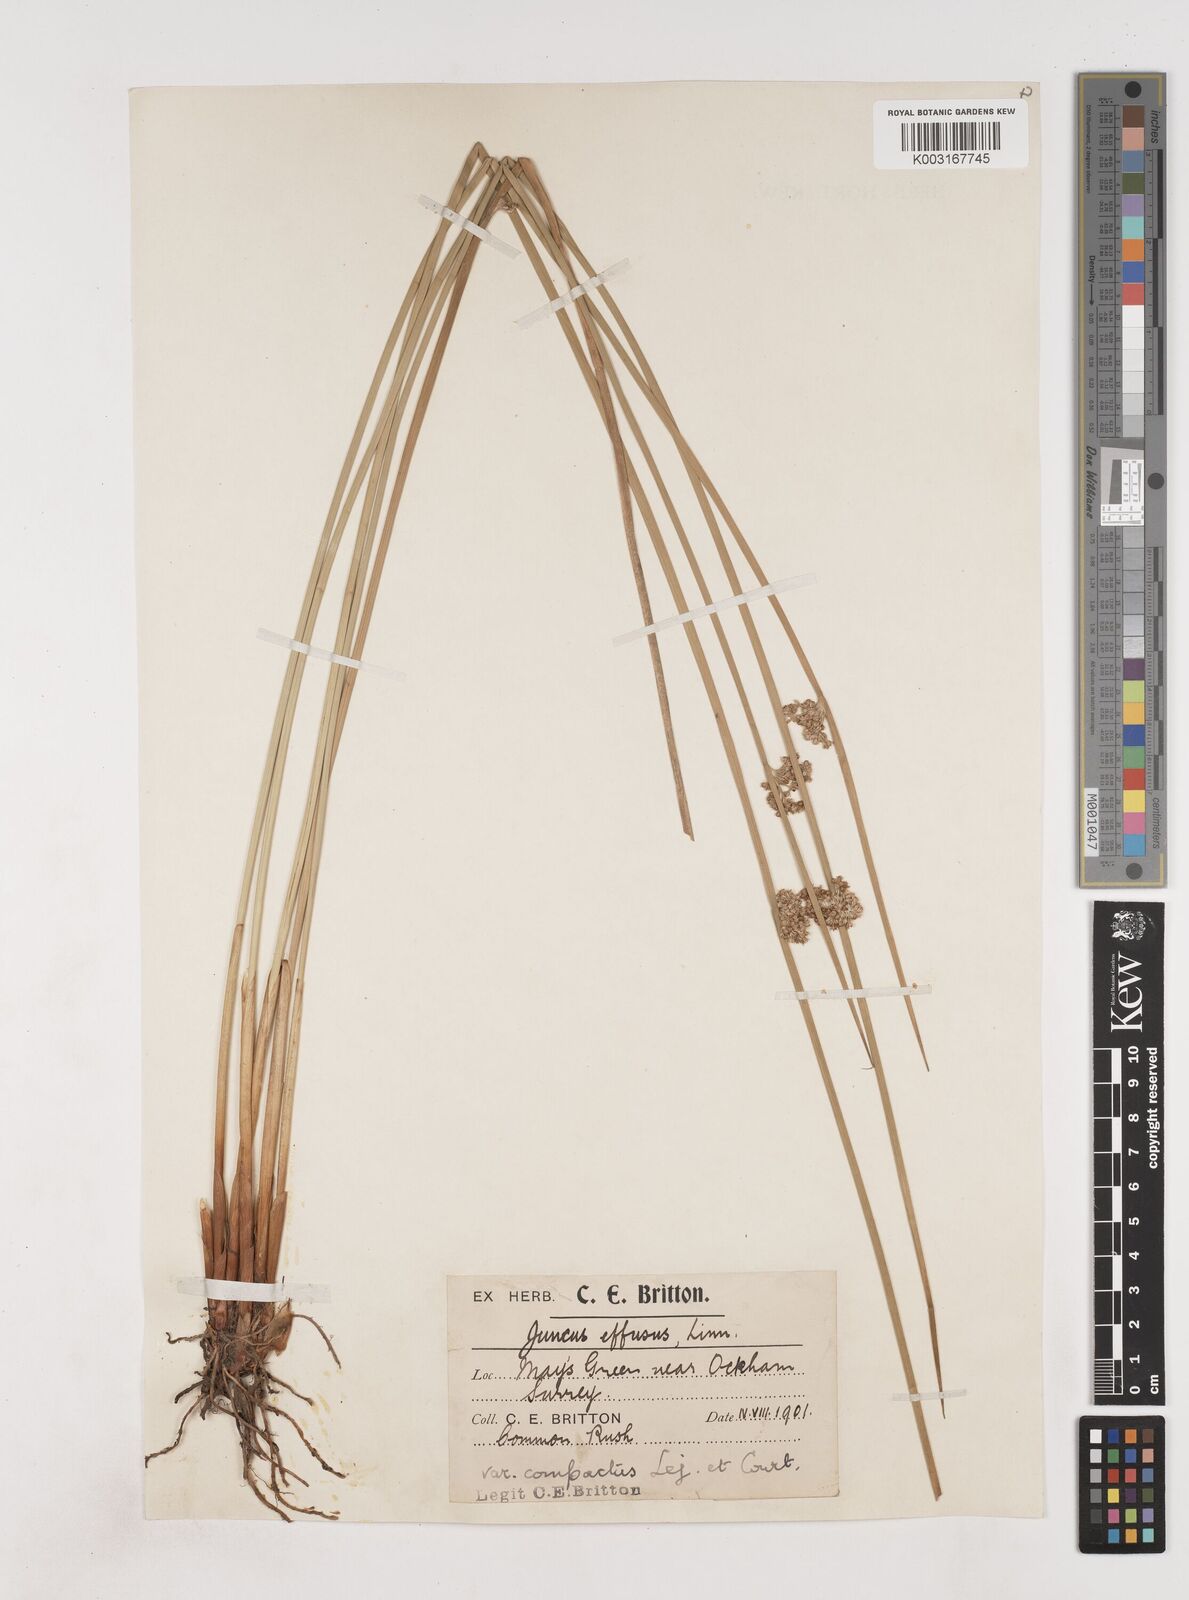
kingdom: Plantae
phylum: Tracheophyta
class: Liliopsida
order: Poales
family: Juncaceae
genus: Juncus
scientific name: Juncus effusus
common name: Soft rush
